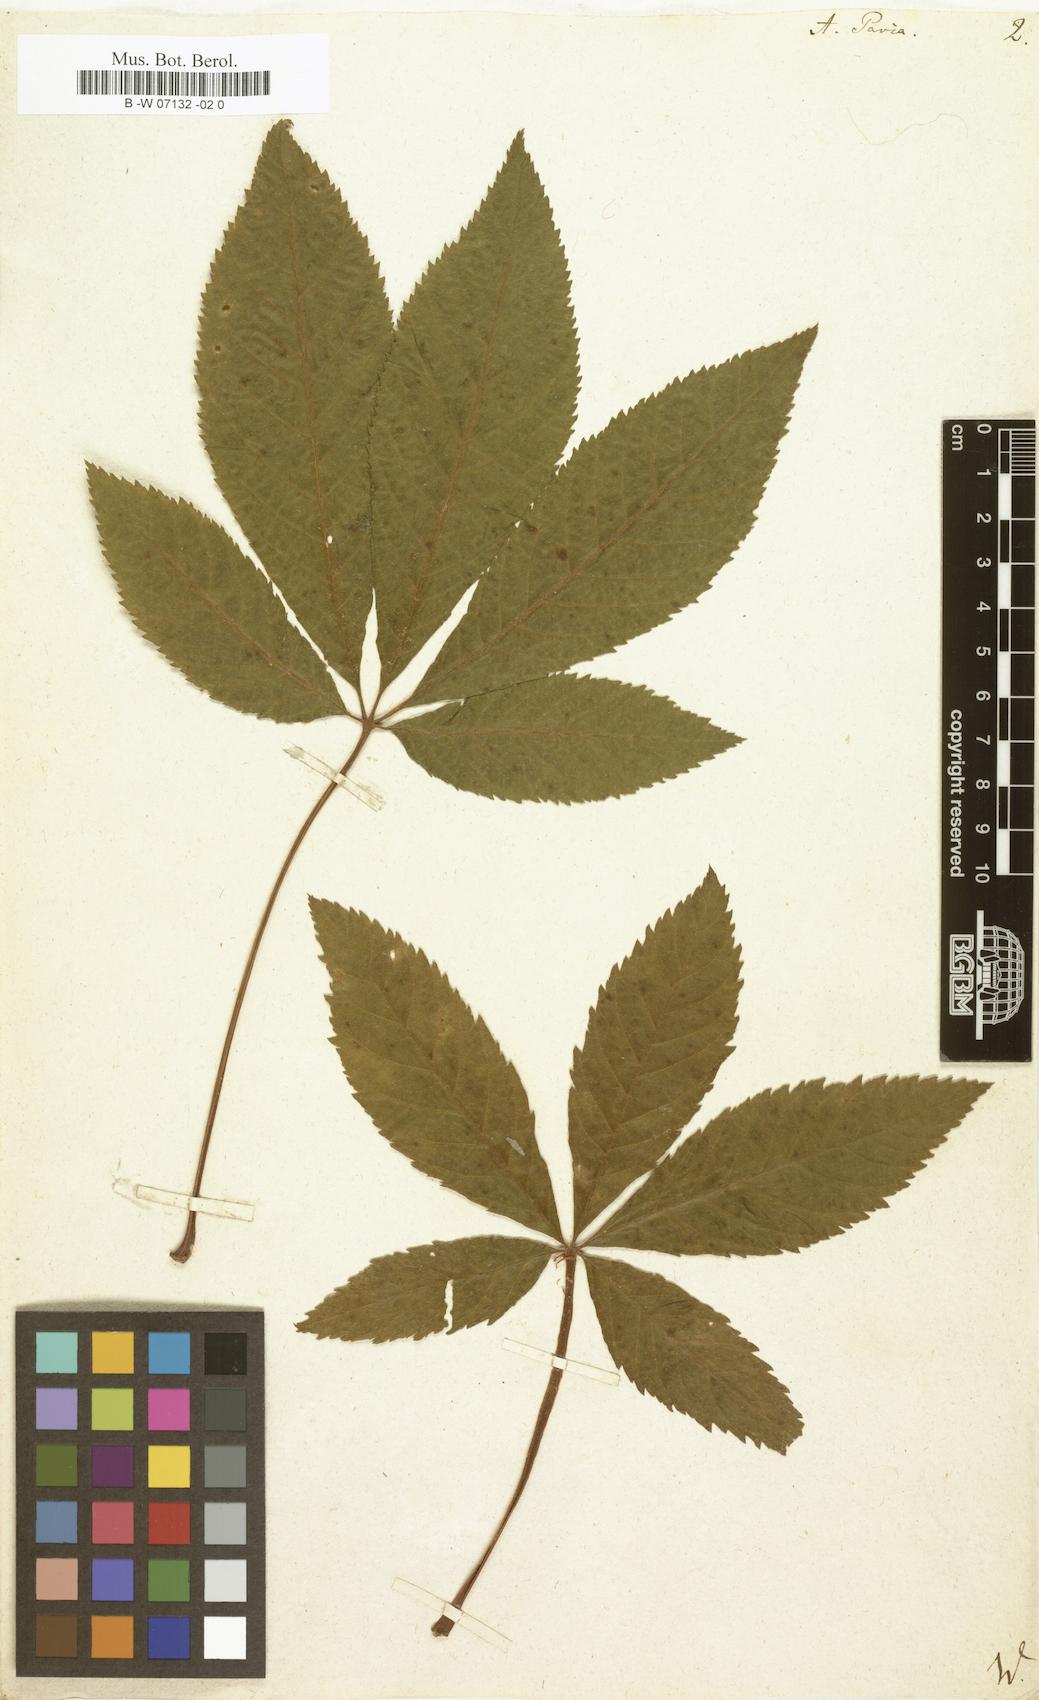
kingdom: Plantae
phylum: Tracheophyta
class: Magnoliopsida
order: Sapindales
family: Sapindaceae
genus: Aesculus
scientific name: Aesculus pavia
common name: Red buckeye
